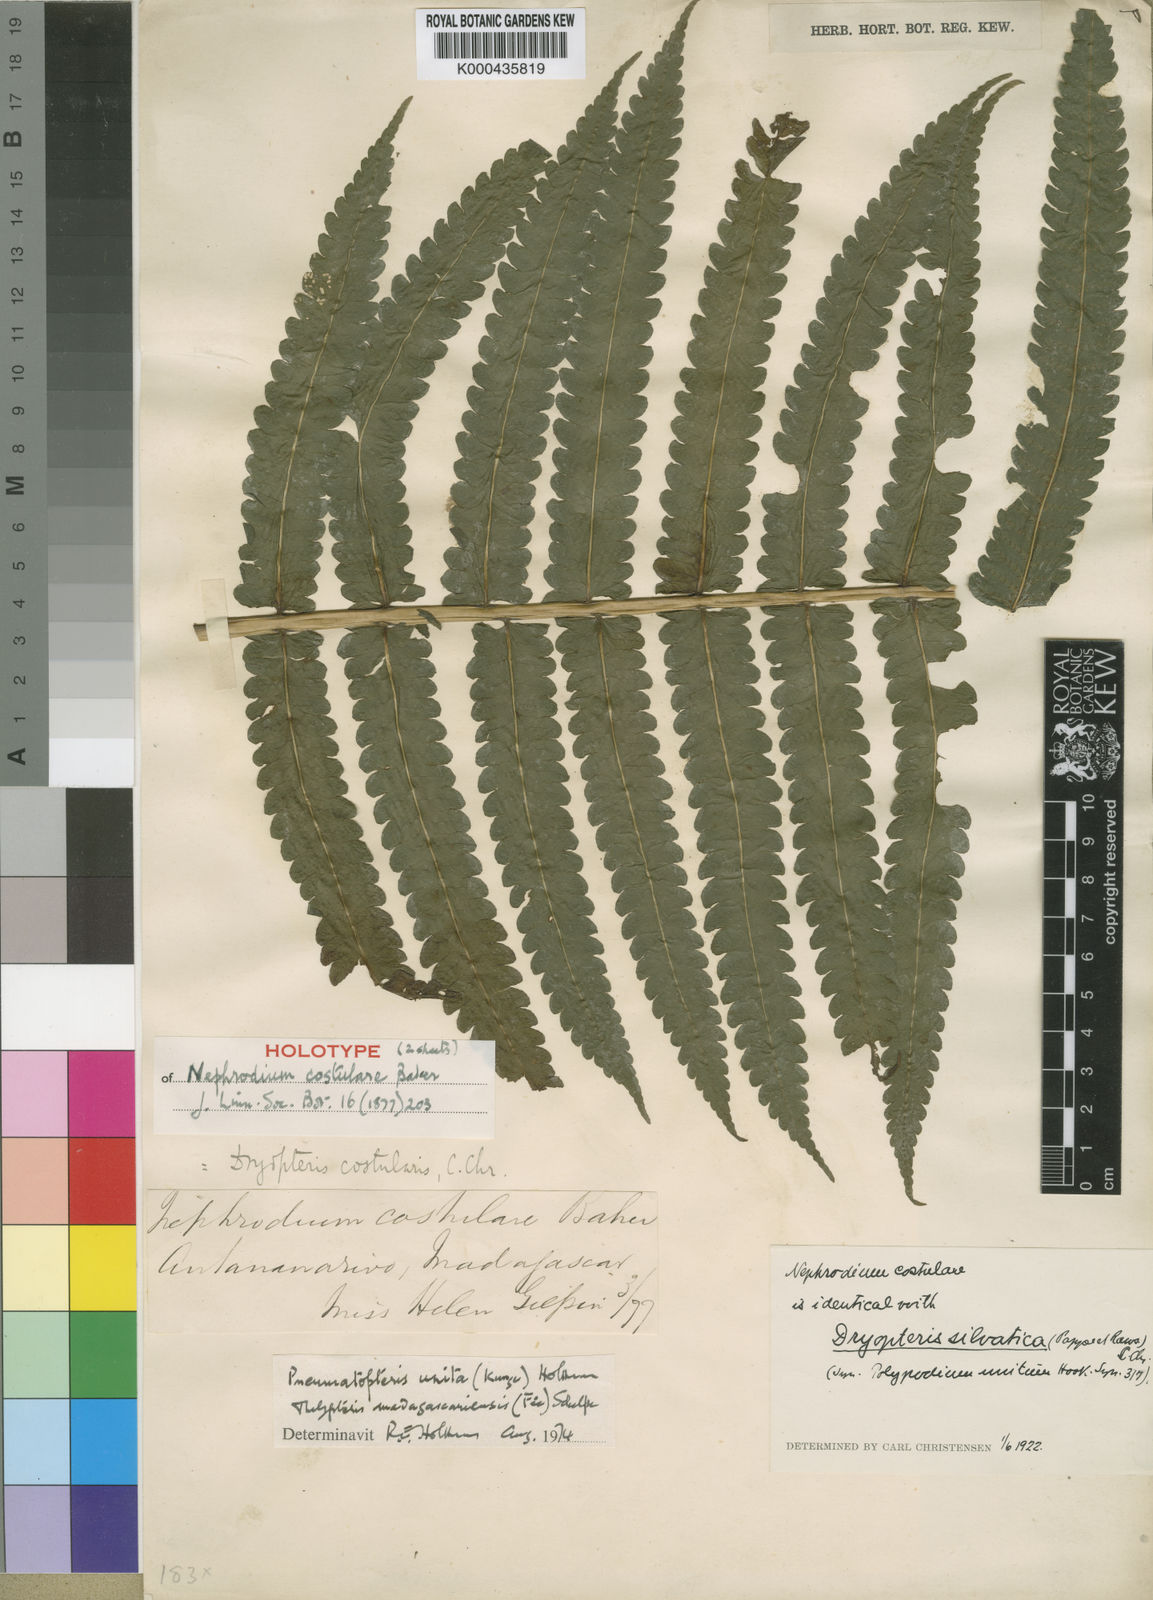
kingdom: Plantae
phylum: Tracheophyta
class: Polypodiopsida
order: Polypodiales
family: Thelypteridaceae
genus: Menisorus
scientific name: Menisorus unitus
